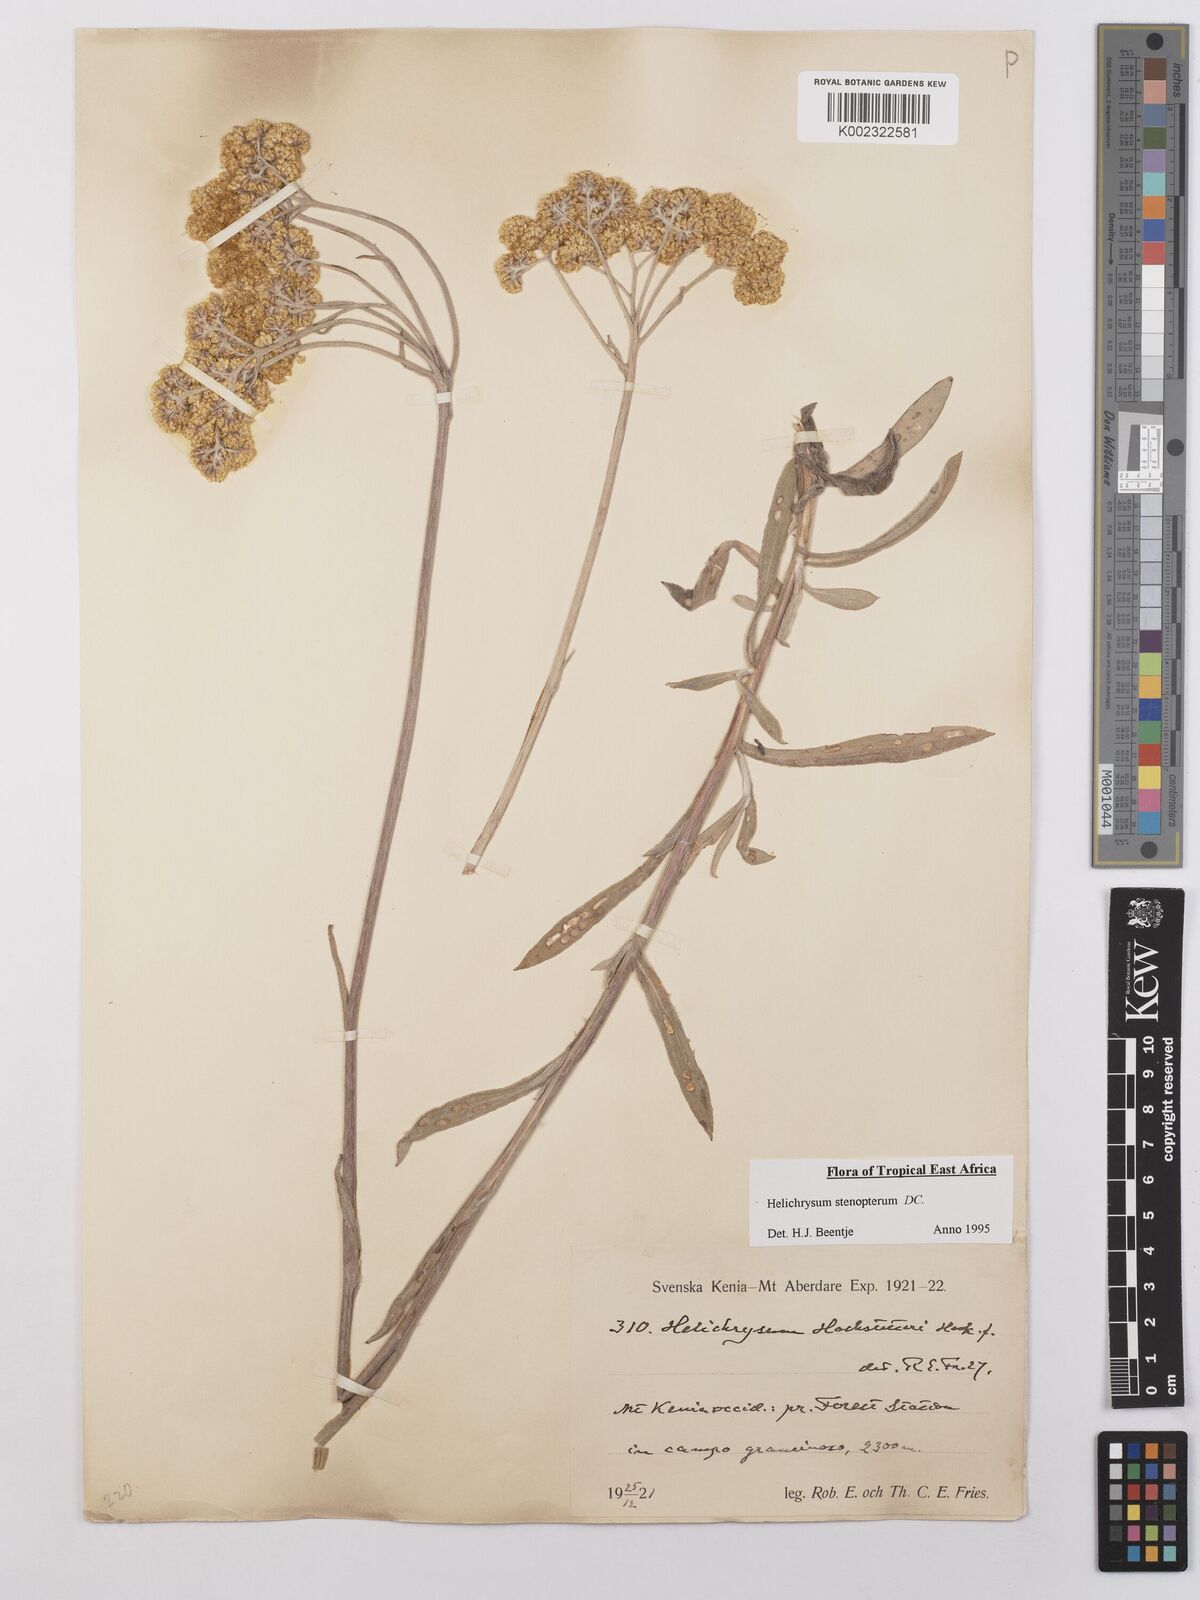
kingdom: Plantae
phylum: Tracheophyta
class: Magnoliopsida
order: Asterales
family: Asteraceae
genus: Helichrysum
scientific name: Helichrysum stenopterum
